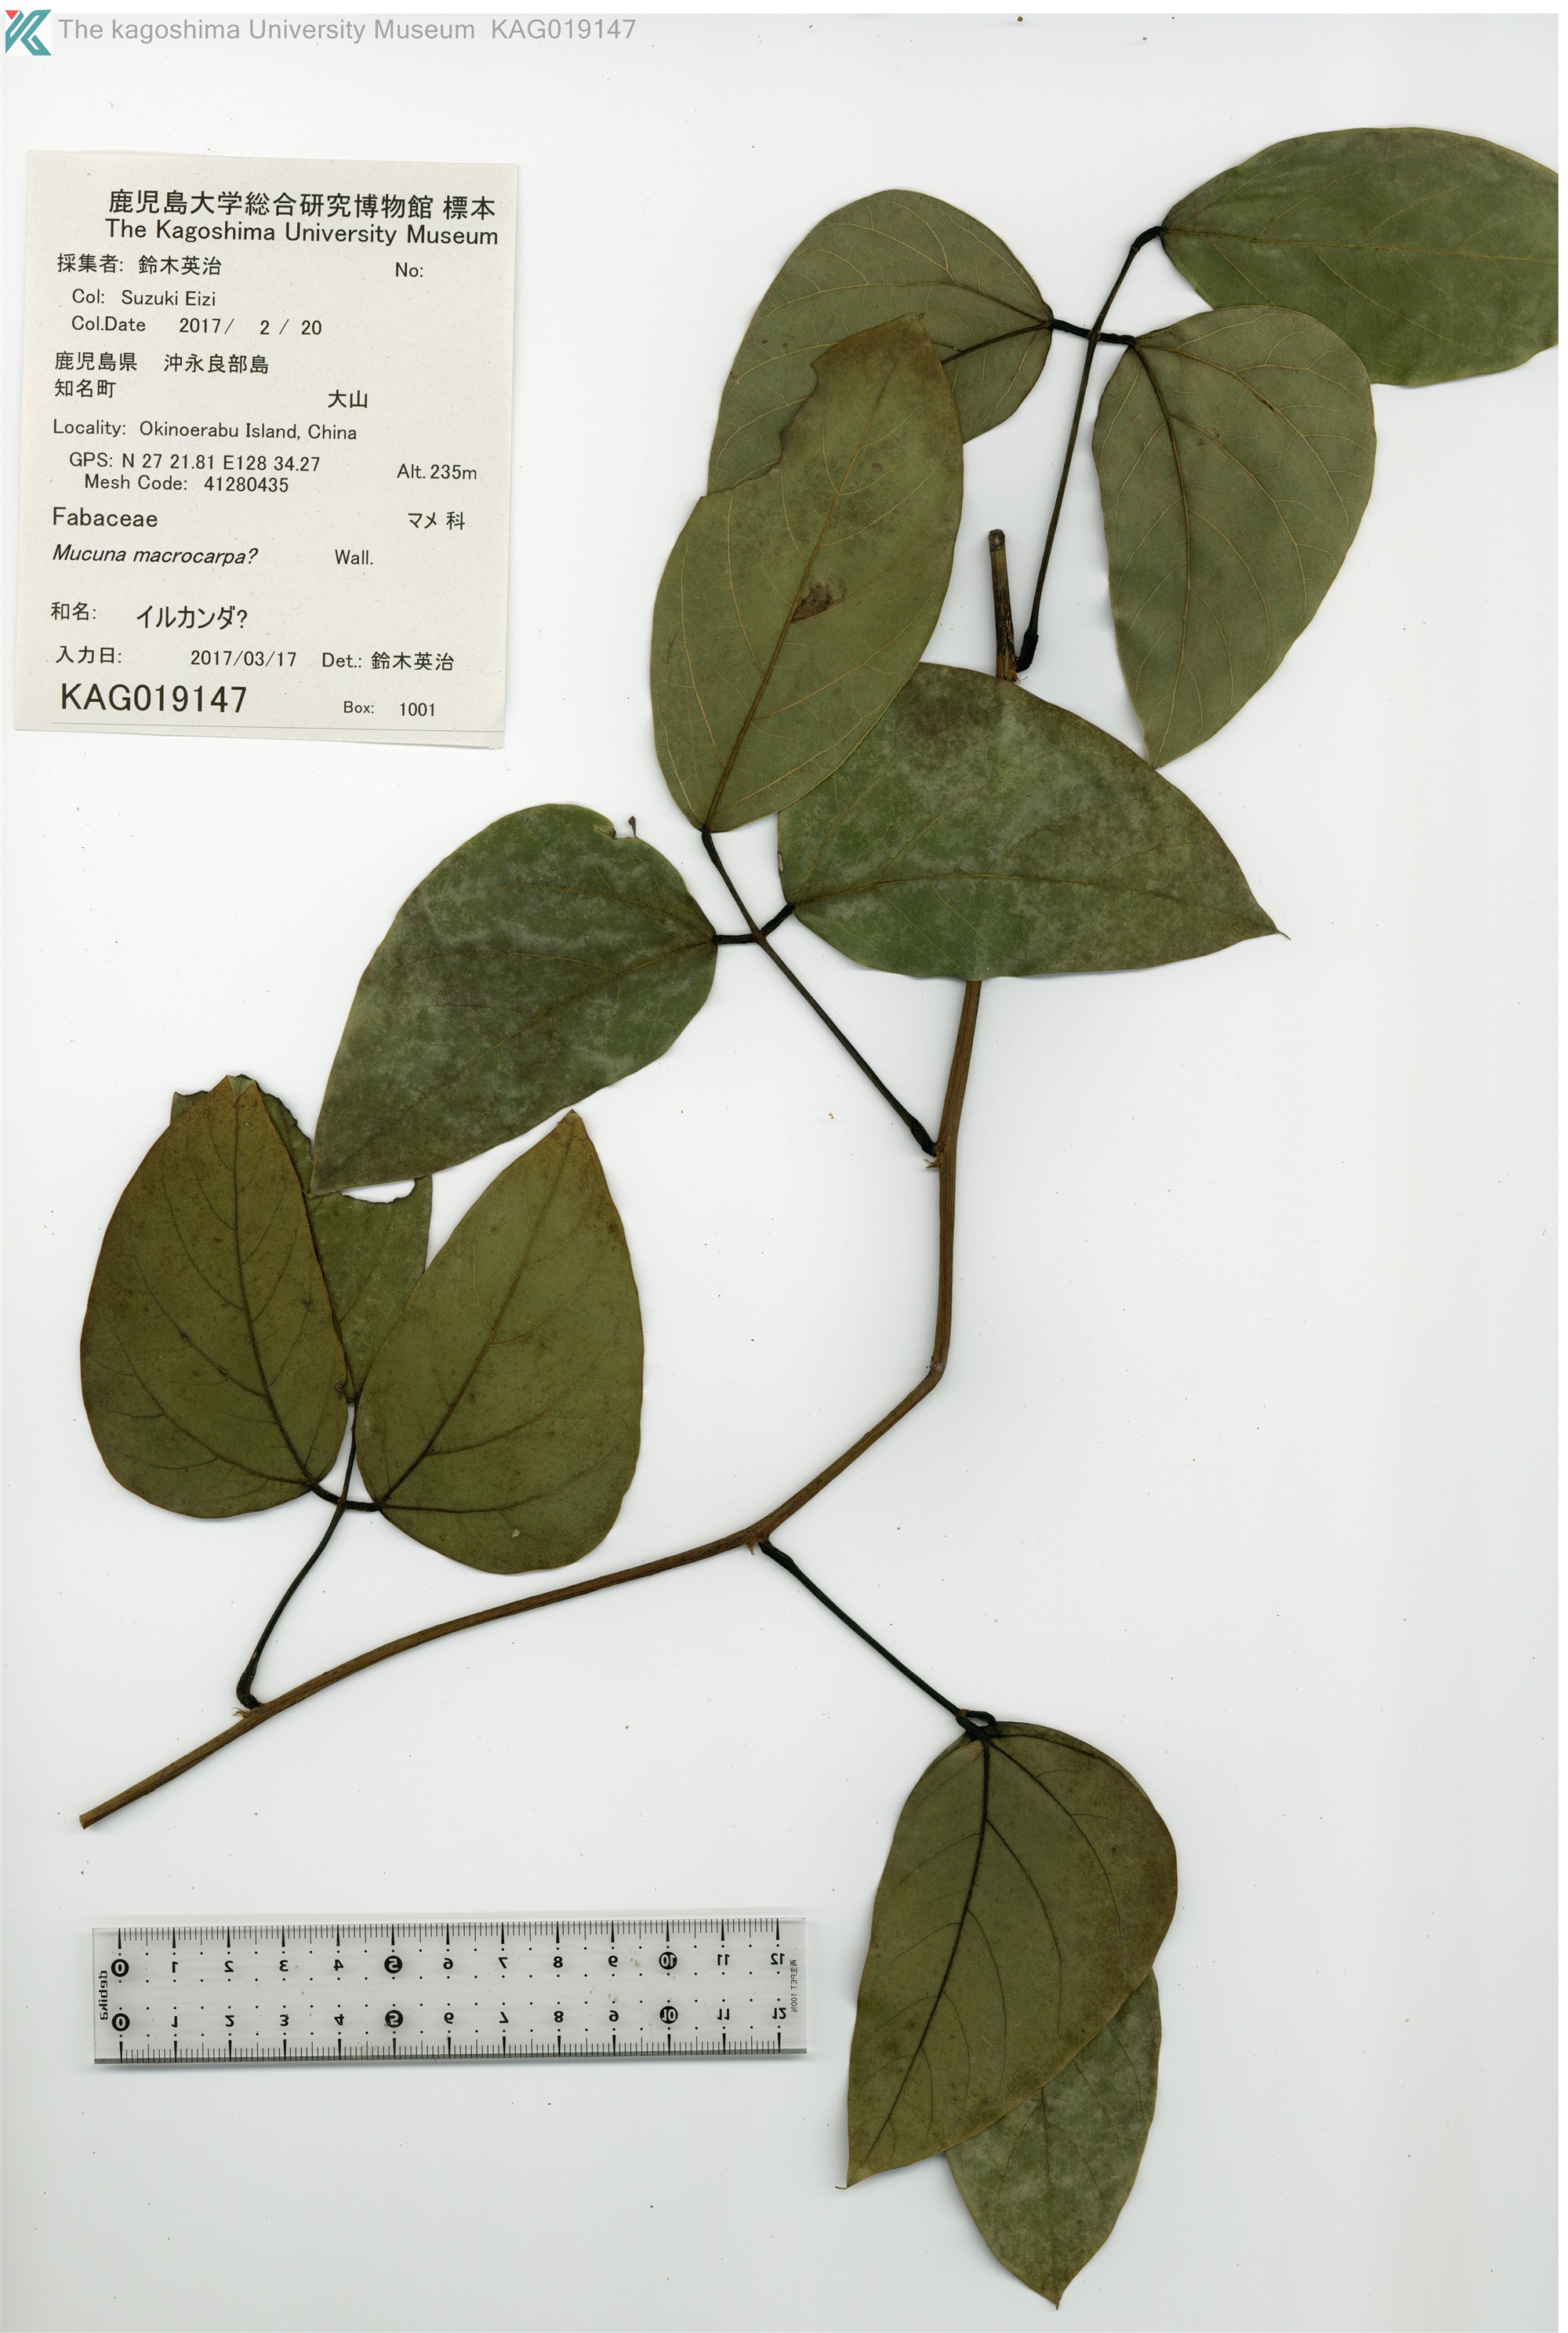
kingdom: Plantae
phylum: Tracheophyta
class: Magnoliopsida
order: Fabales
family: Fabaceae
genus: Mucuna
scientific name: Mucuna macrocarpa
